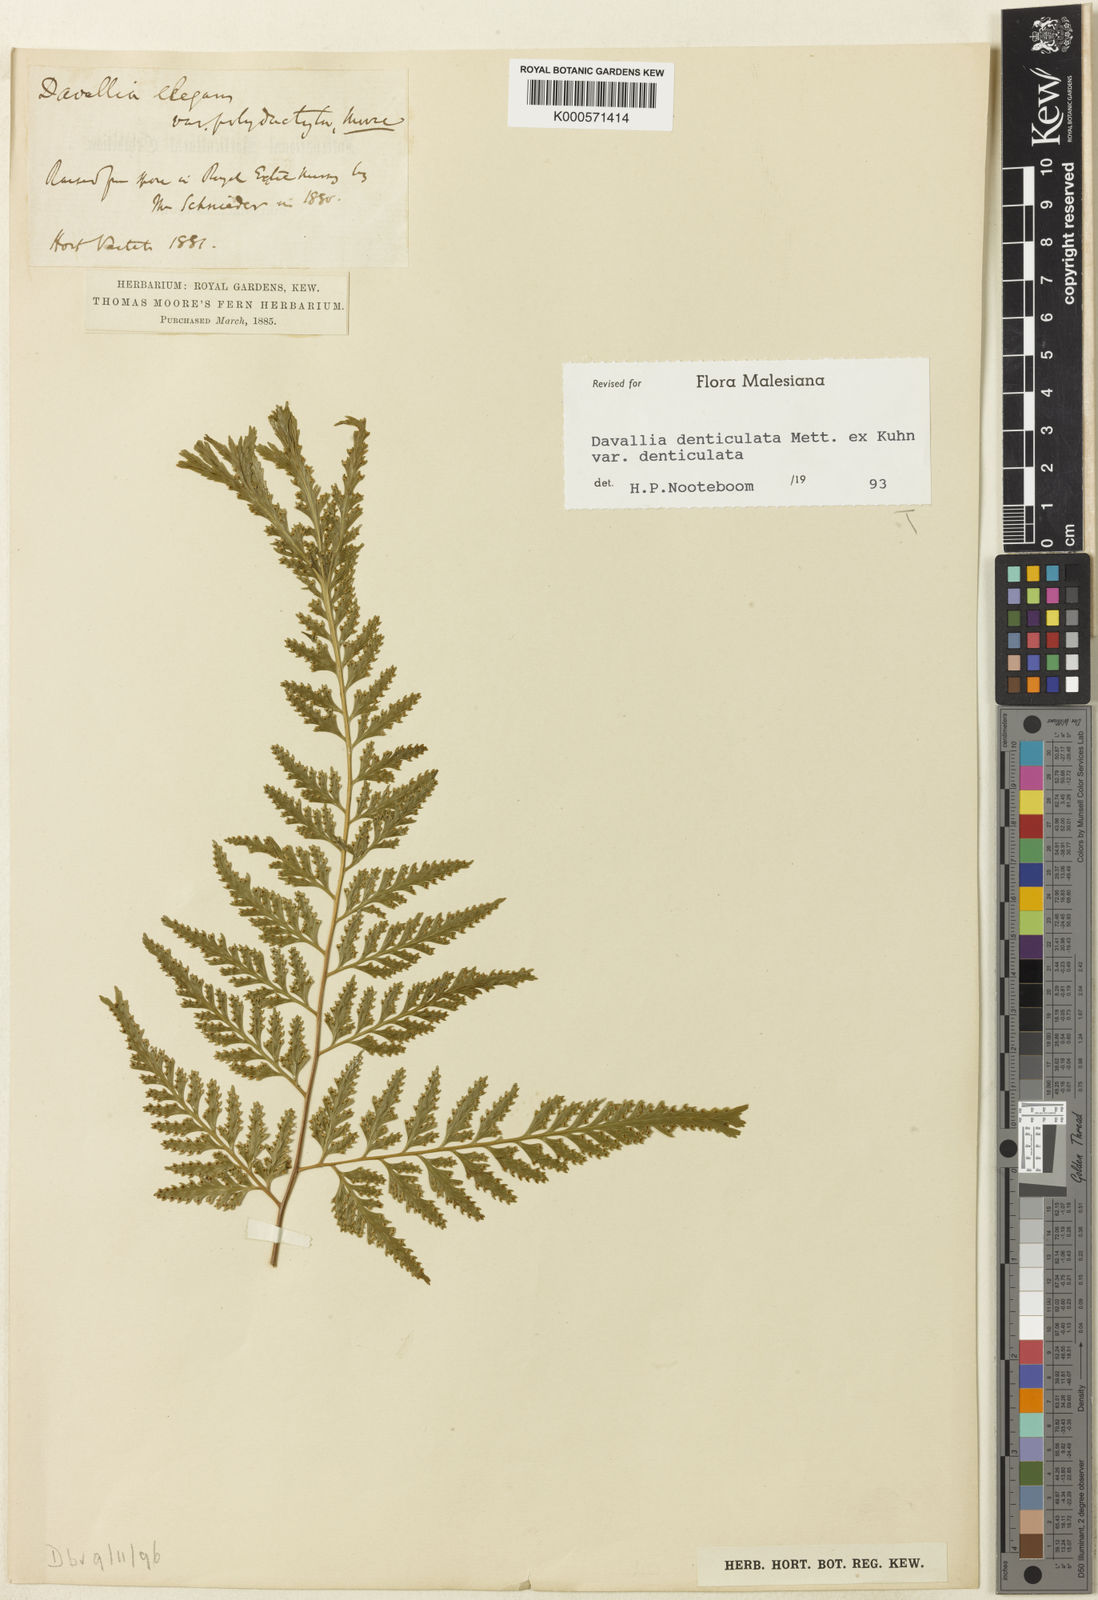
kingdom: Plantae
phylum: Tracheophyta
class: Polypodiopsida
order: Polypodiales
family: Davalliaceae
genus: Davallia
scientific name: Davallia
